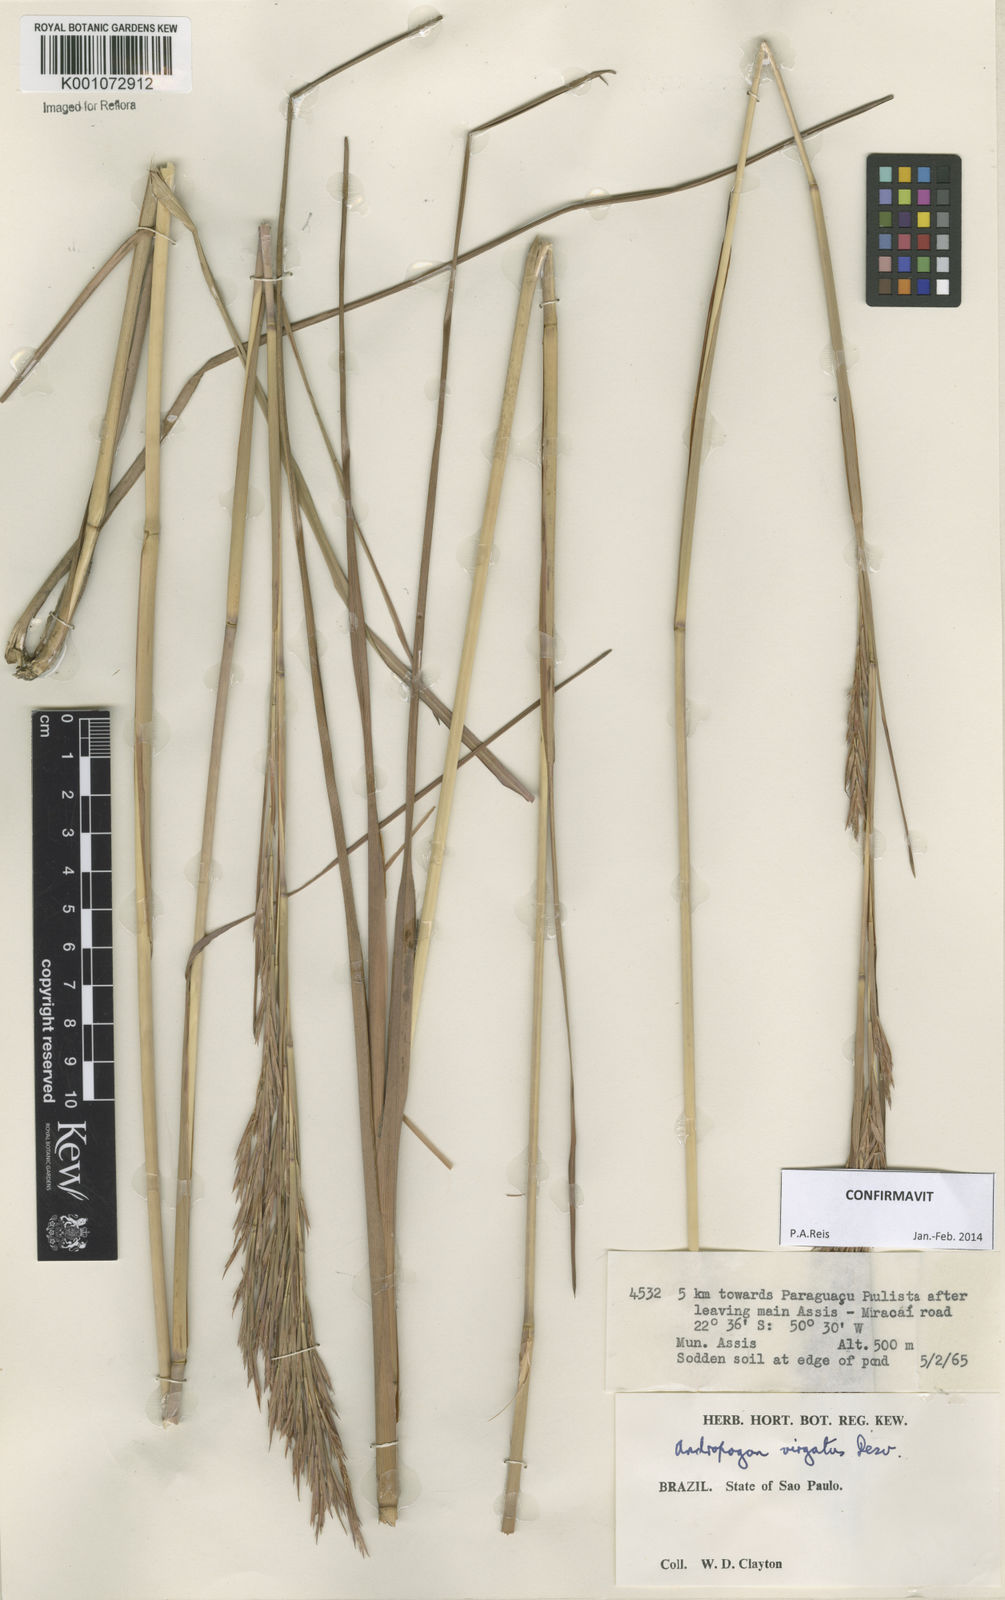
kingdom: Plantae
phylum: Tracheophyta
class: Liliopsida
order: Poales
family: Poaceae
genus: Andropogon
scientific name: Andropogon virgatus
